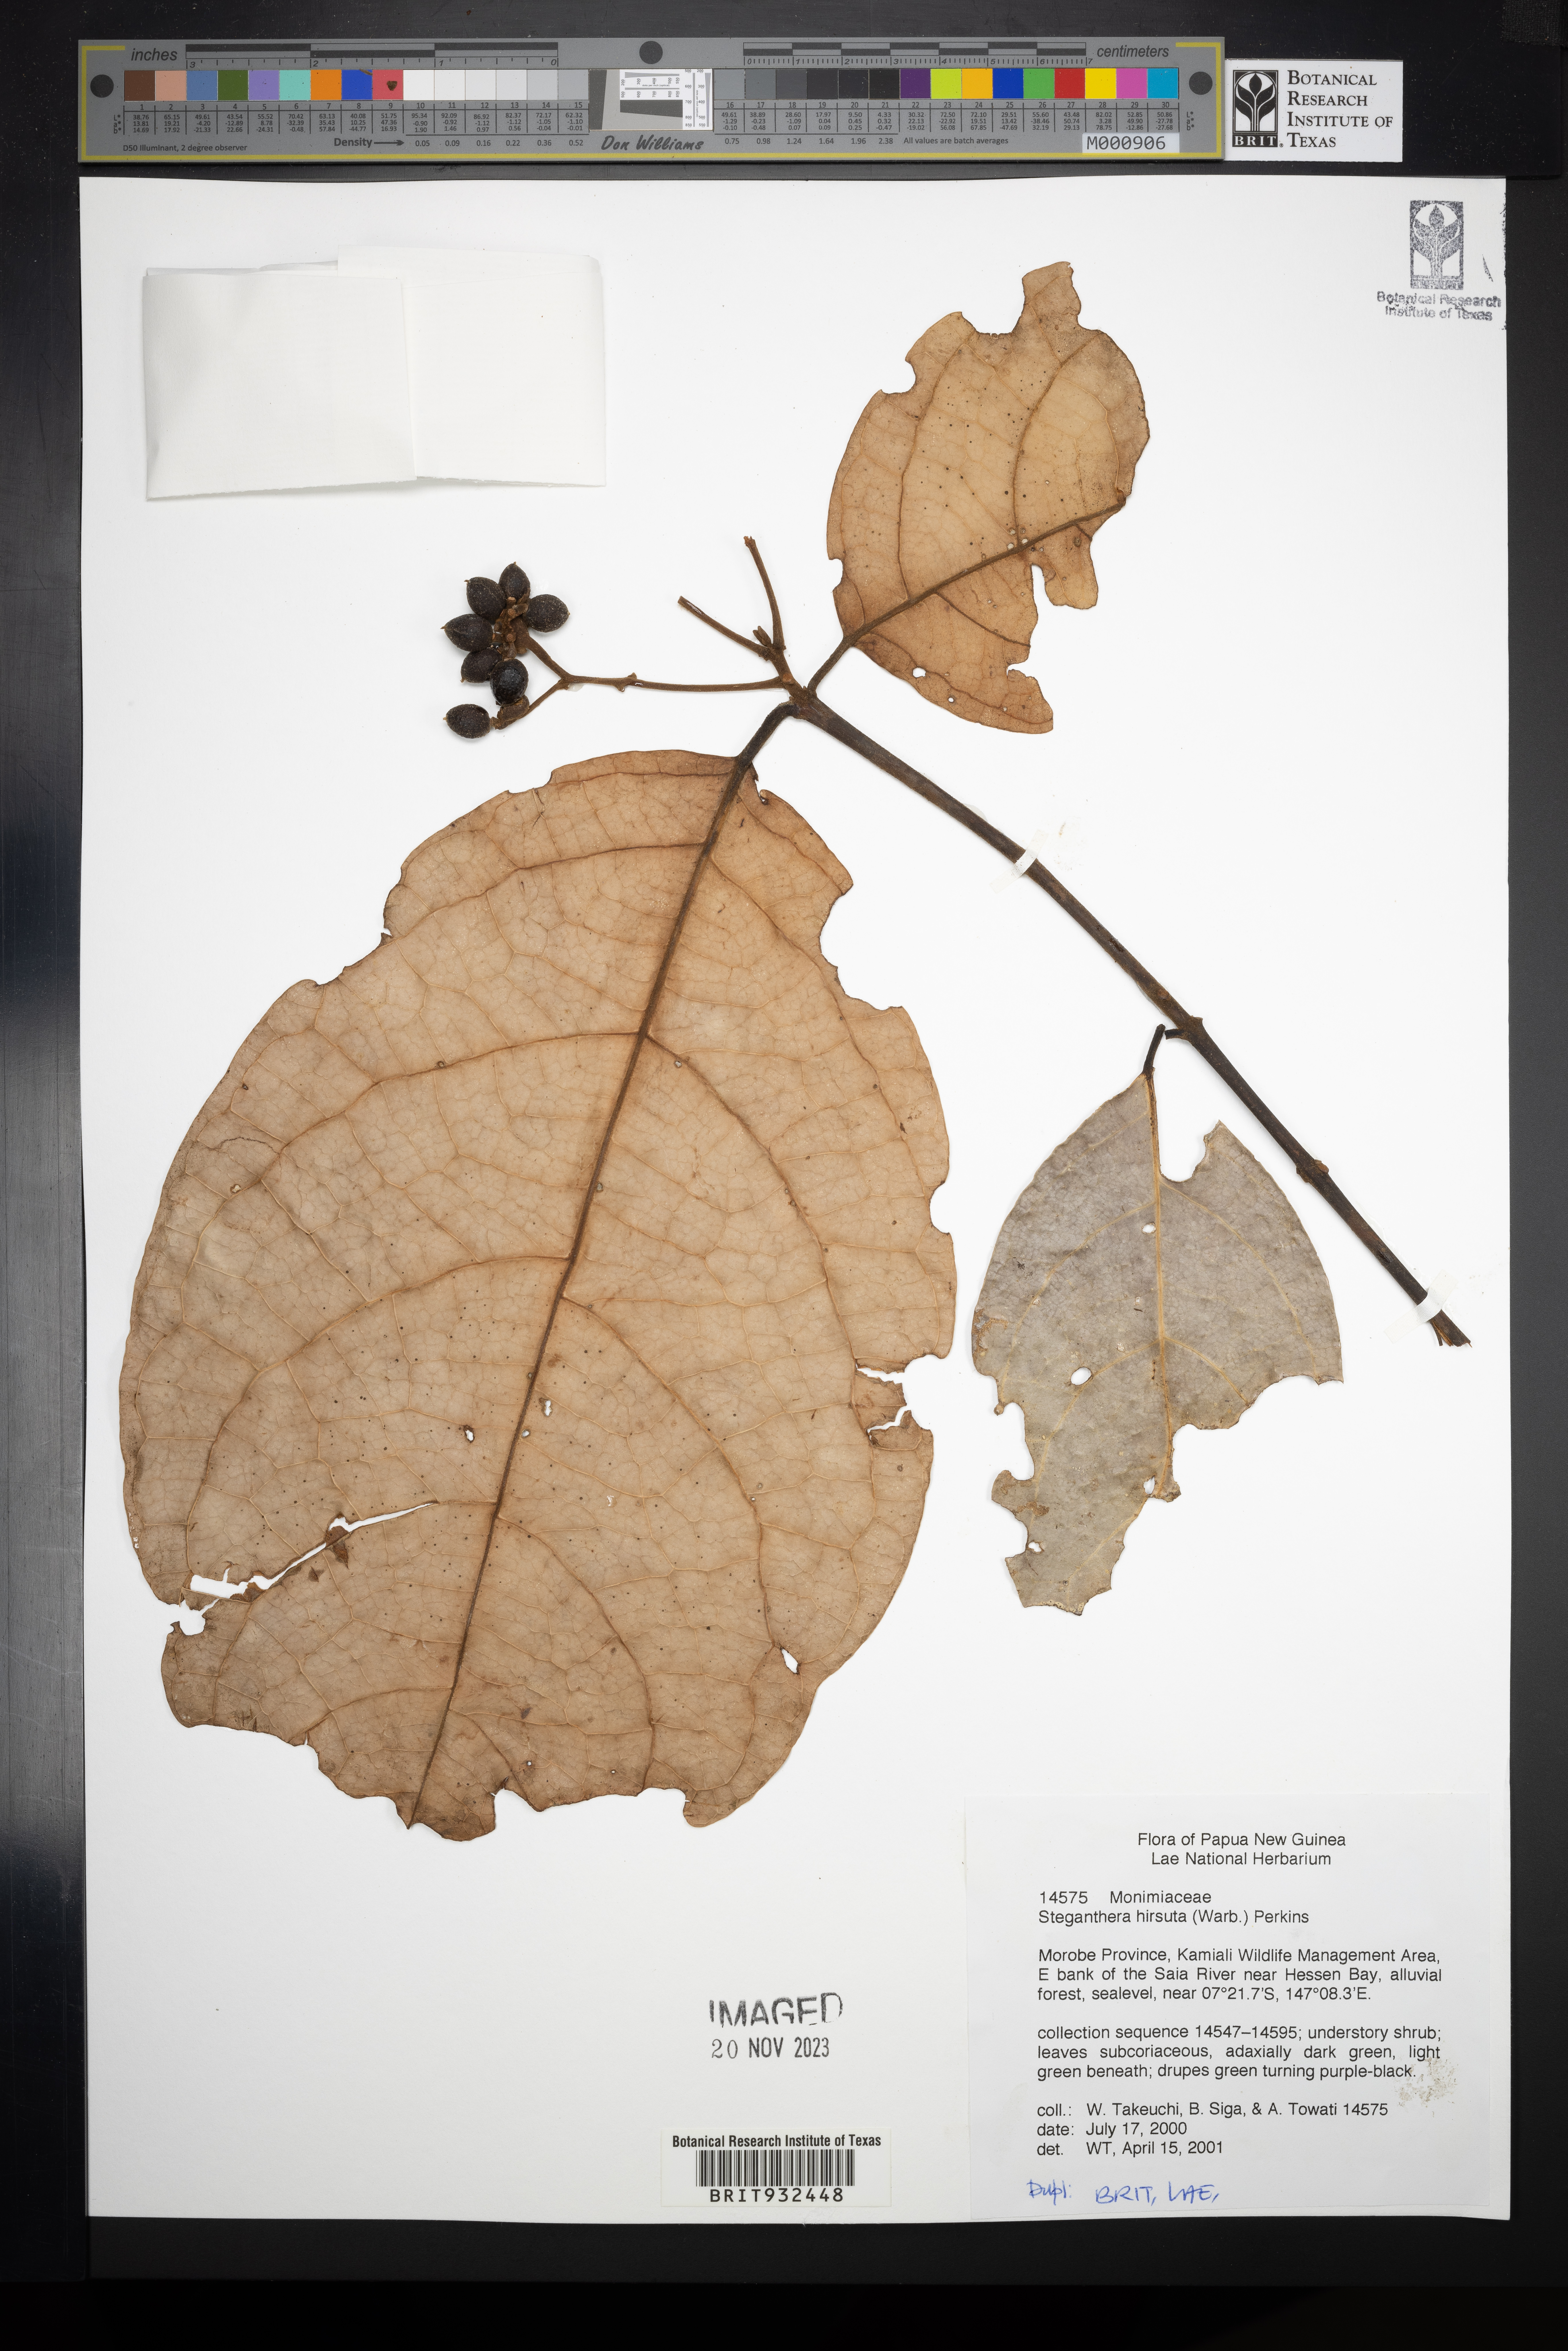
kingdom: Plantae
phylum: Tracheophyta
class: Magnoliopsida
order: Laurales
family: Monimiaceae
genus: Steganthera
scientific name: Steganthera
